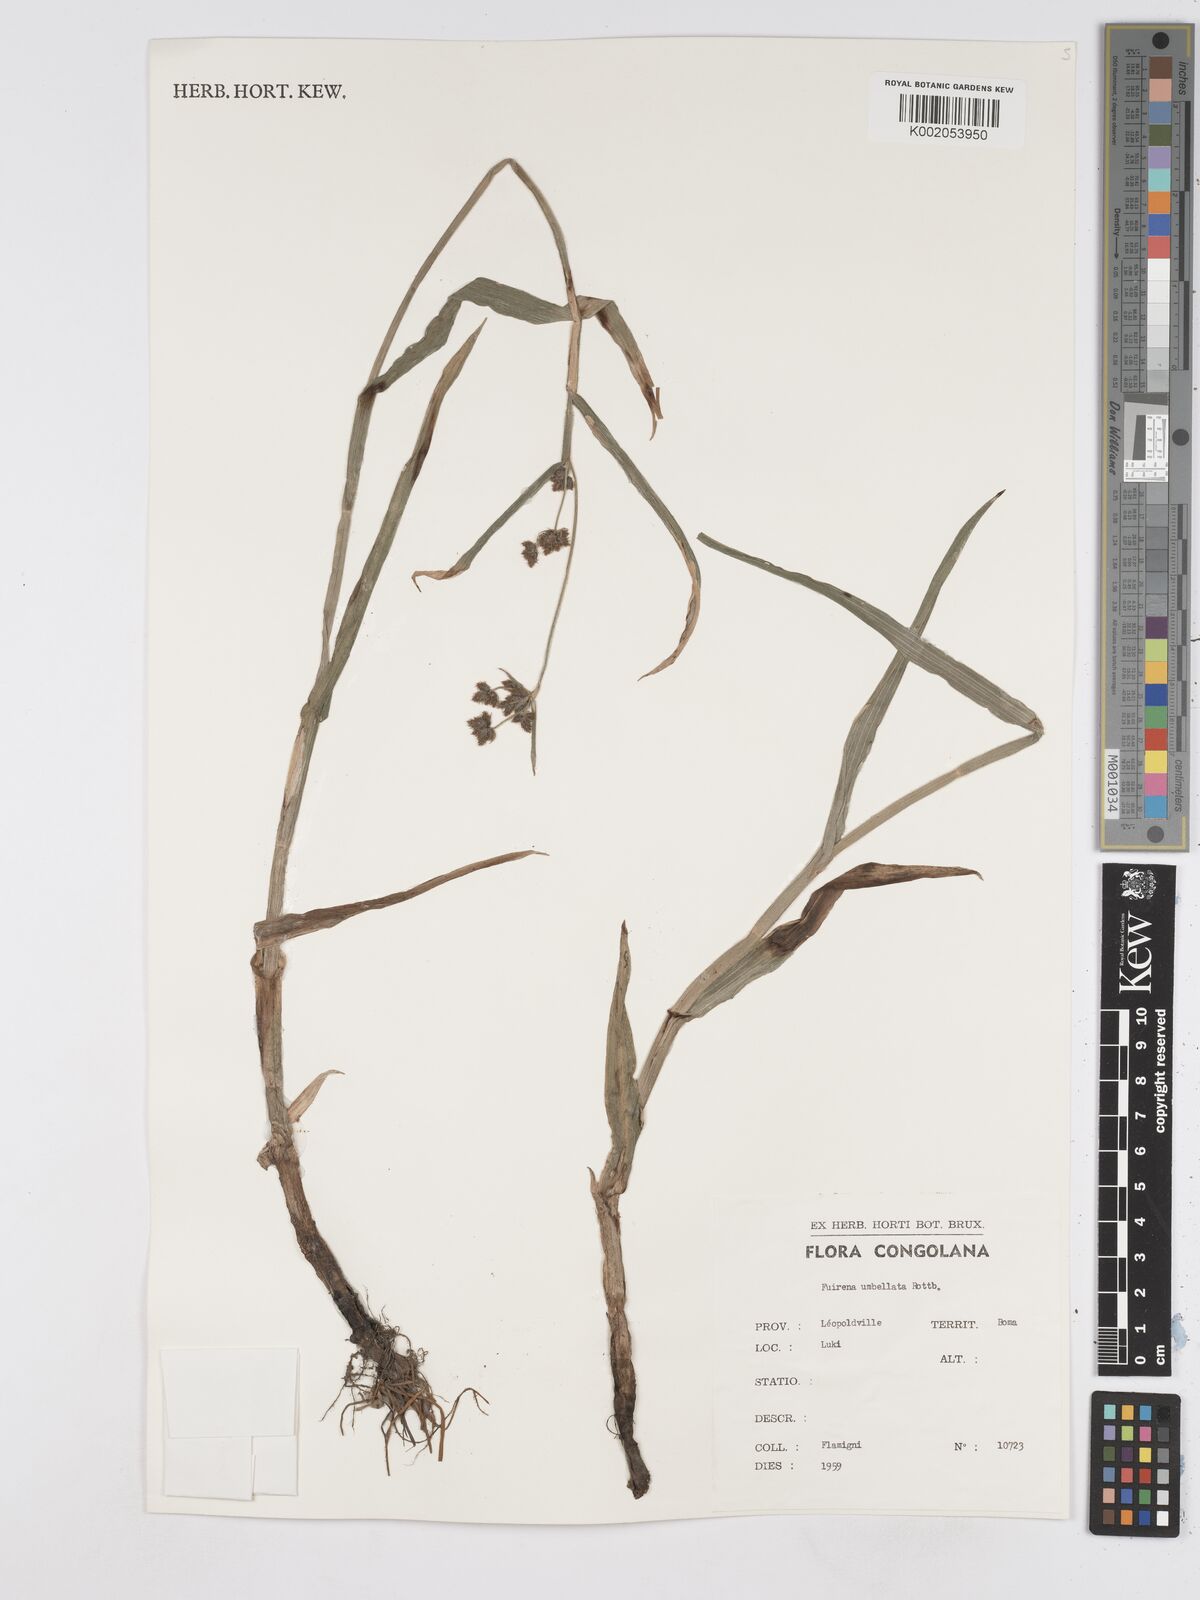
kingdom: Plantae
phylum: Tracheophyta
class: Liliopsida
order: Poales
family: Cyperaceae
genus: Fuirena
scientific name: Fuirena umbellata
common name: Yefen
